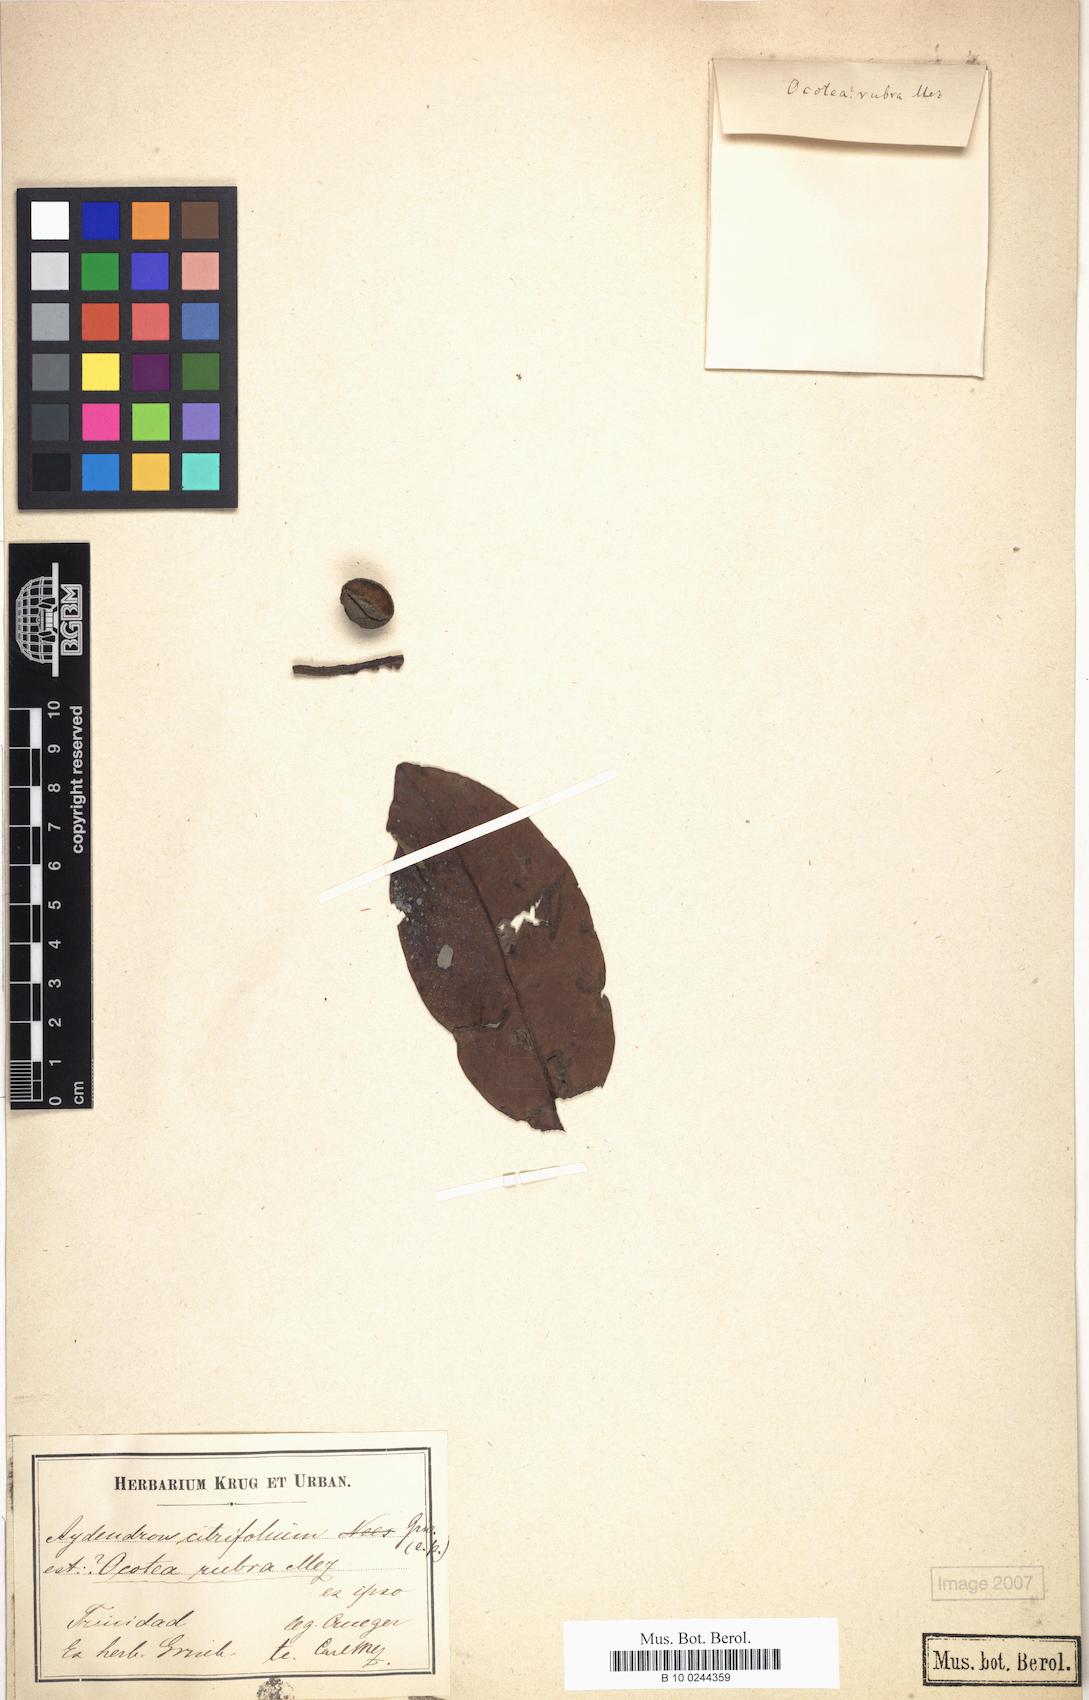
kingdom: Plantae
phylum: Tracheophyta
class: Magnoliopsida
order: Laurales
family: Lauraceae
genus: Sextonia
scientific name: Sextonia rubra
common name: Red louro
